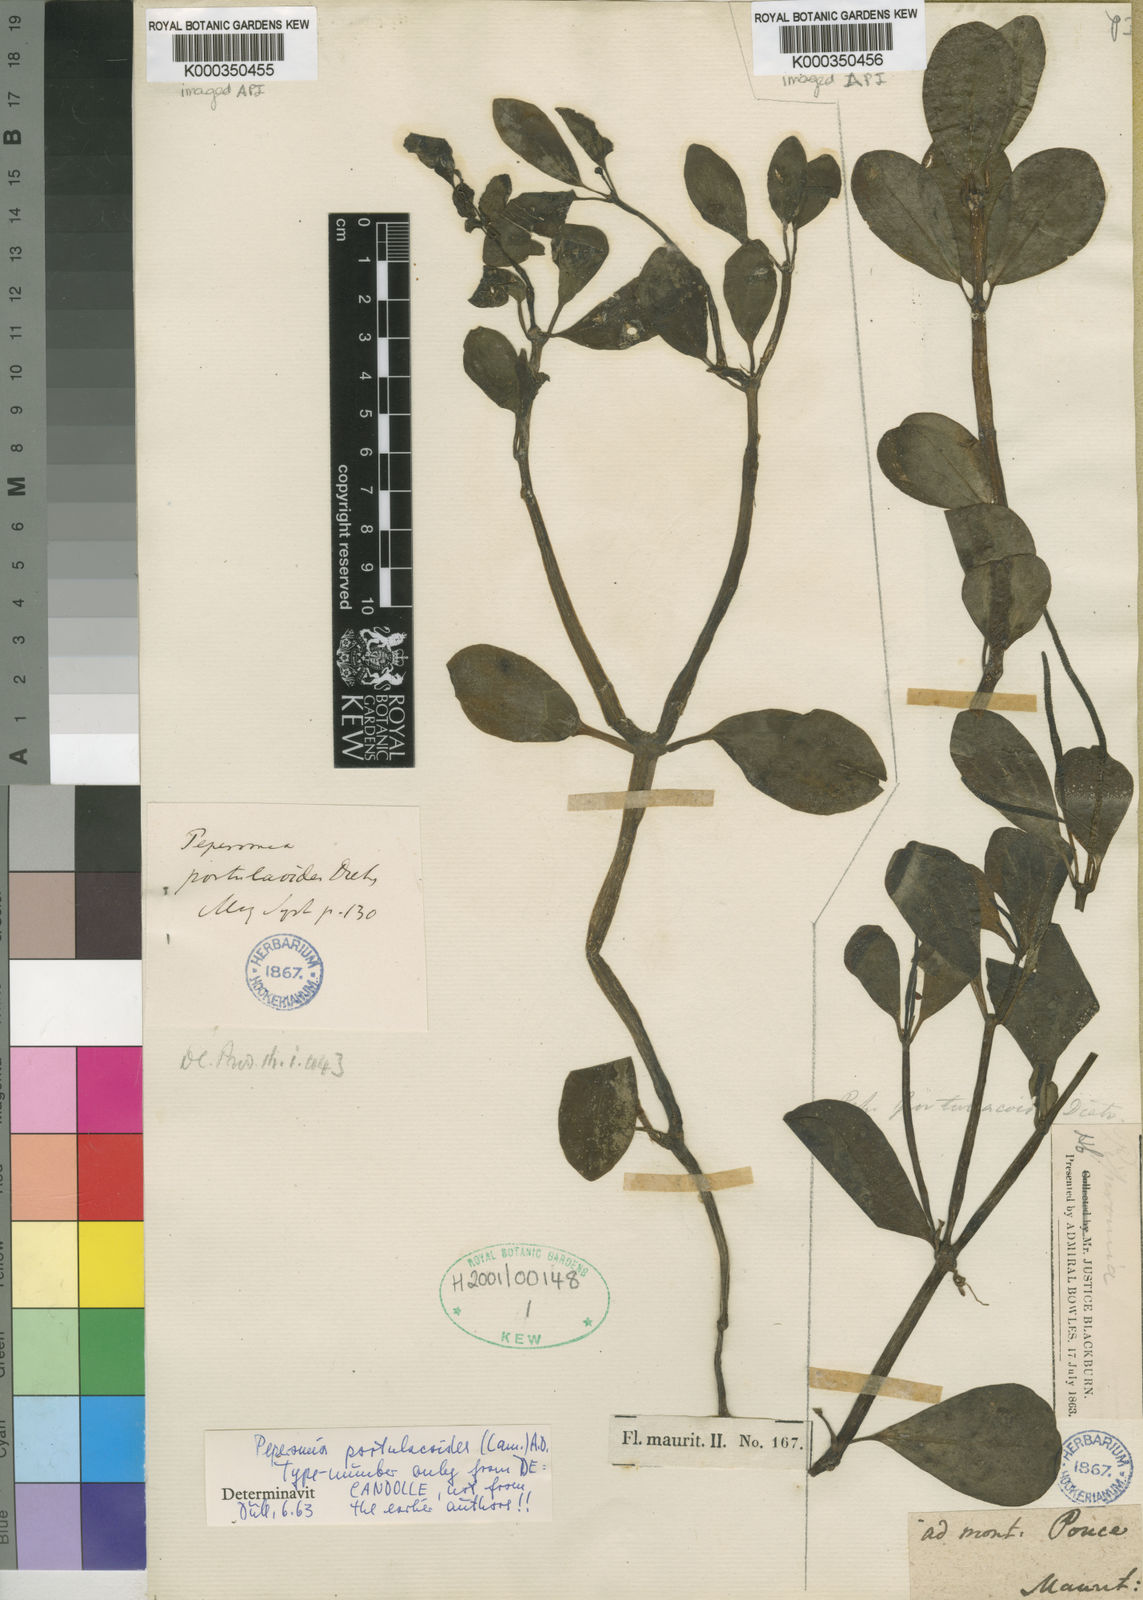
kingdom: Plantae
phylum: Tracheophyta
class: Magnoliopsida
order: Piperales
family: Piperaceae
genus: Peperomia
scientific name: Peperomia portulacoides
